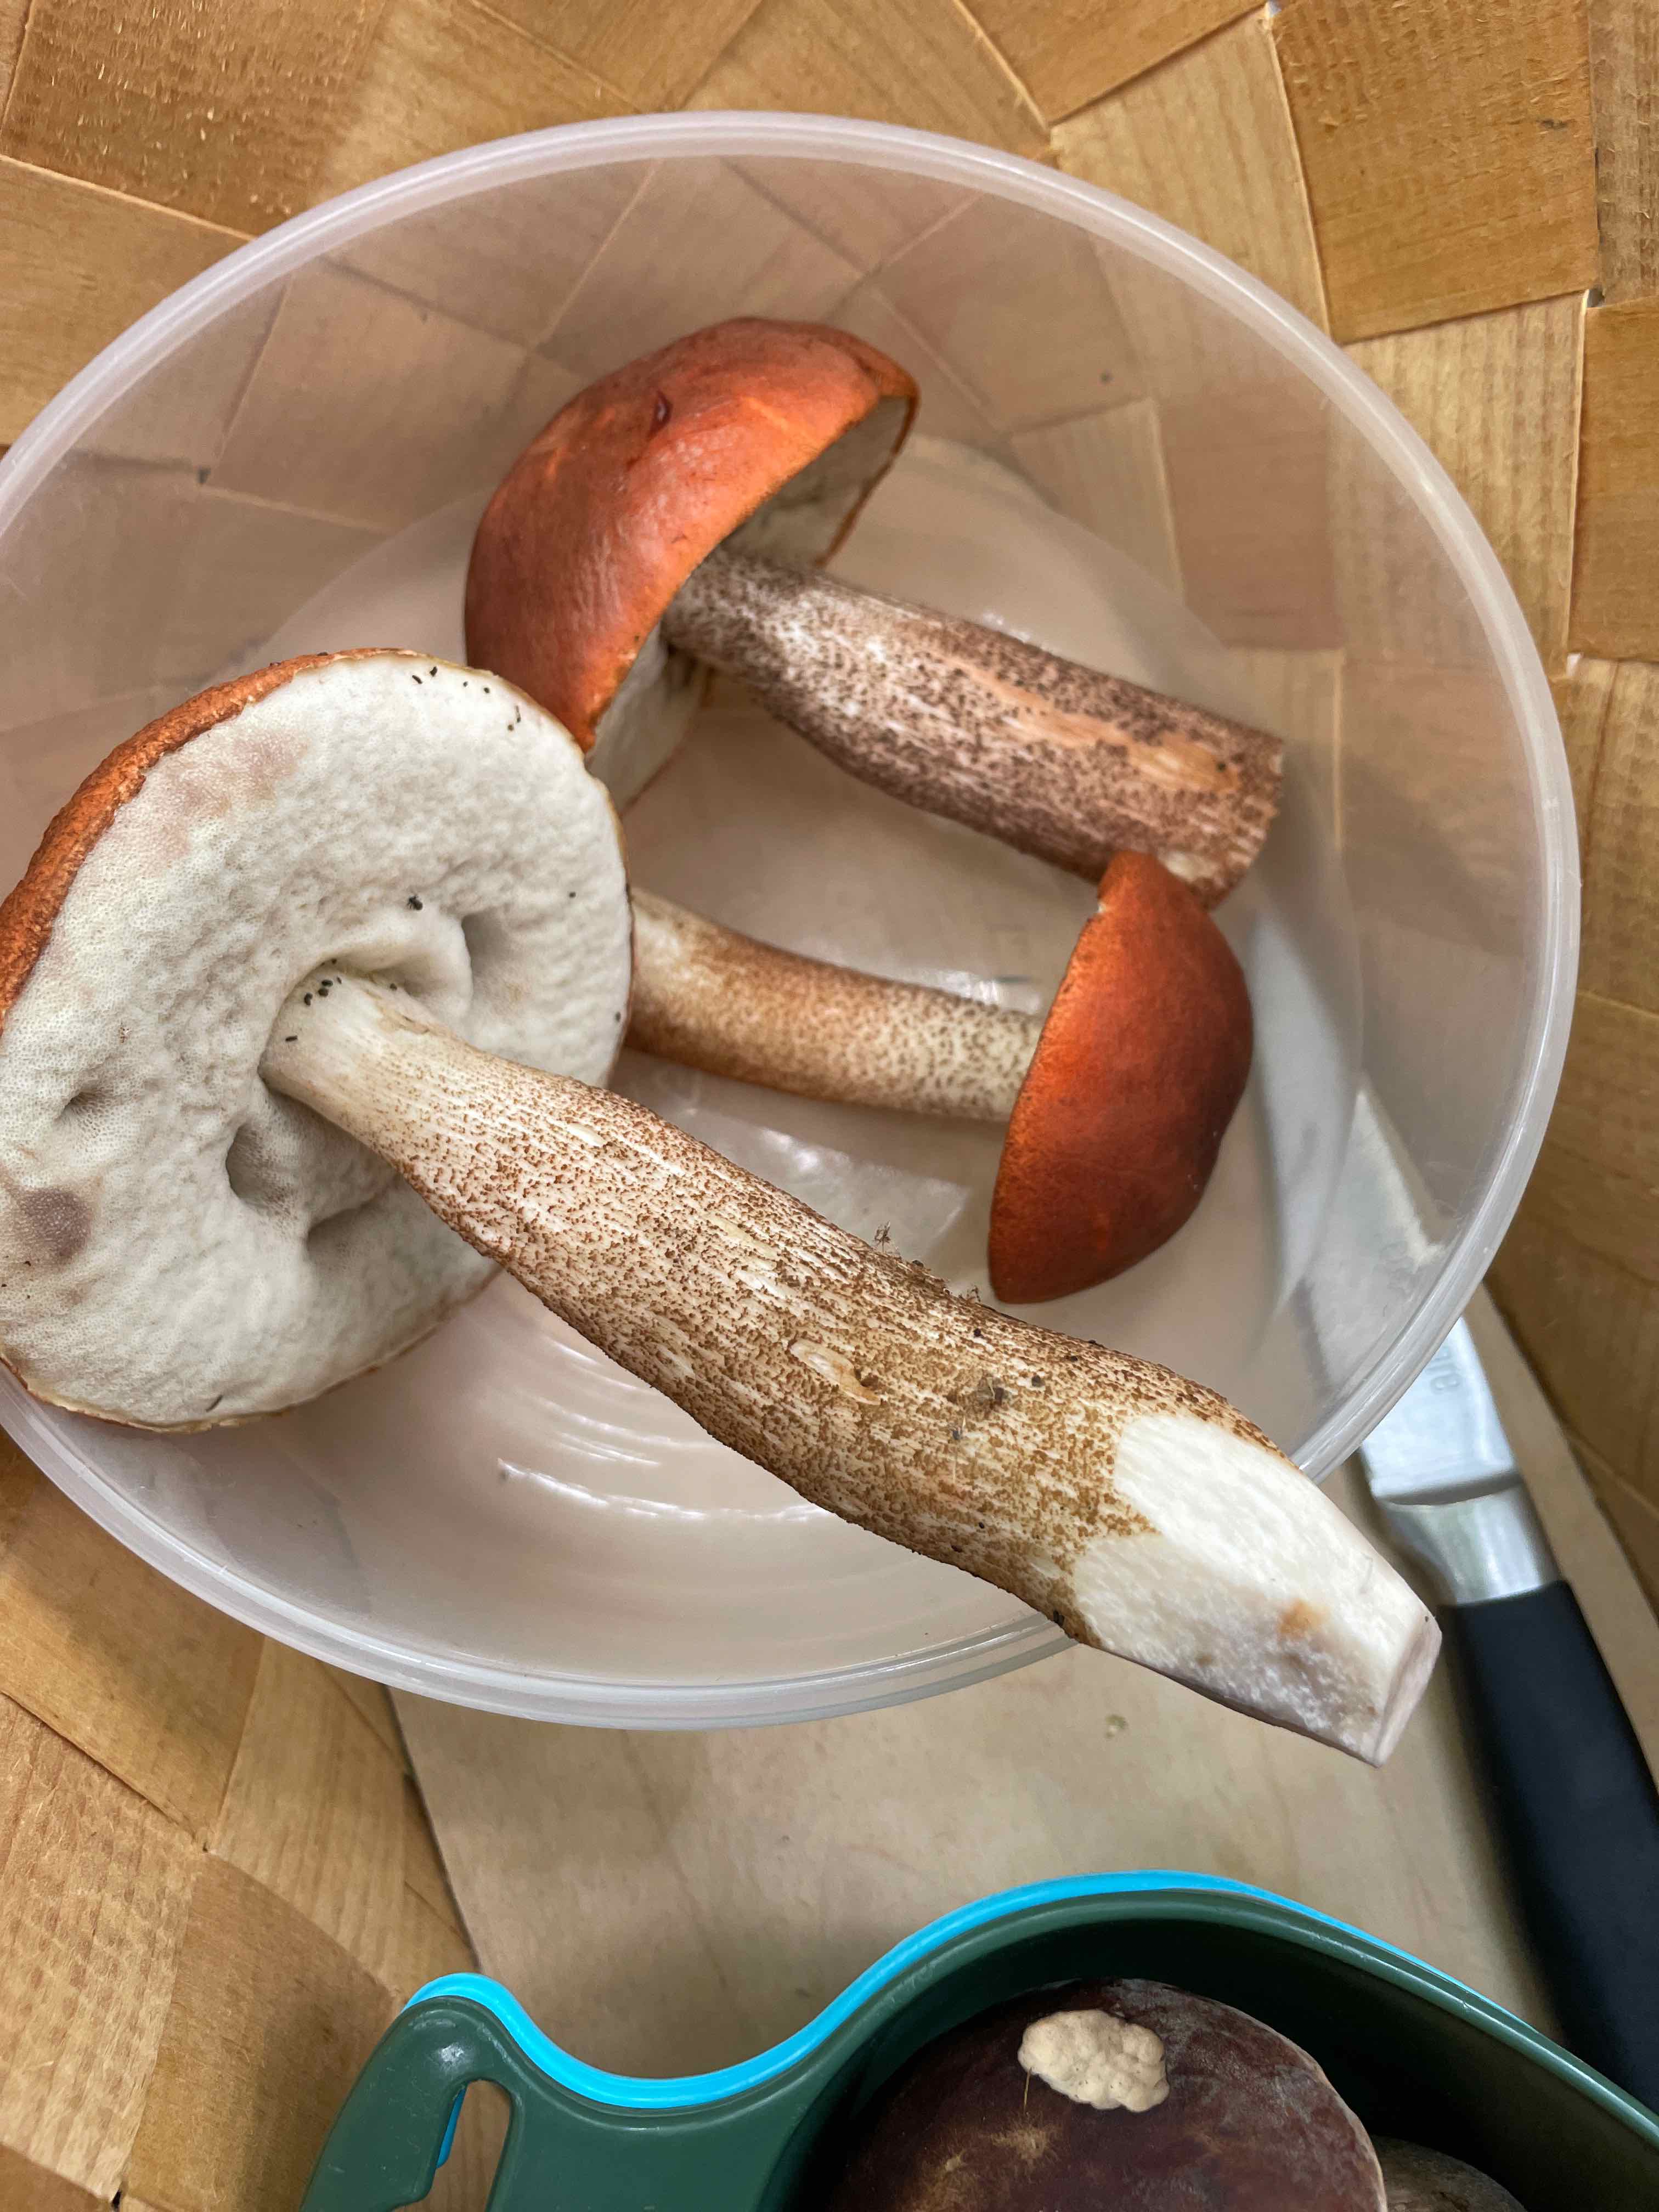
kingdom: Fungi
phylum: Basidiomycota
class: Agaricomycetes
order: Boletales
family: Boletaceae
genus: Leccinum
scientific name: Leccinum aurantiacum
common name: rustrød skælrørhat
